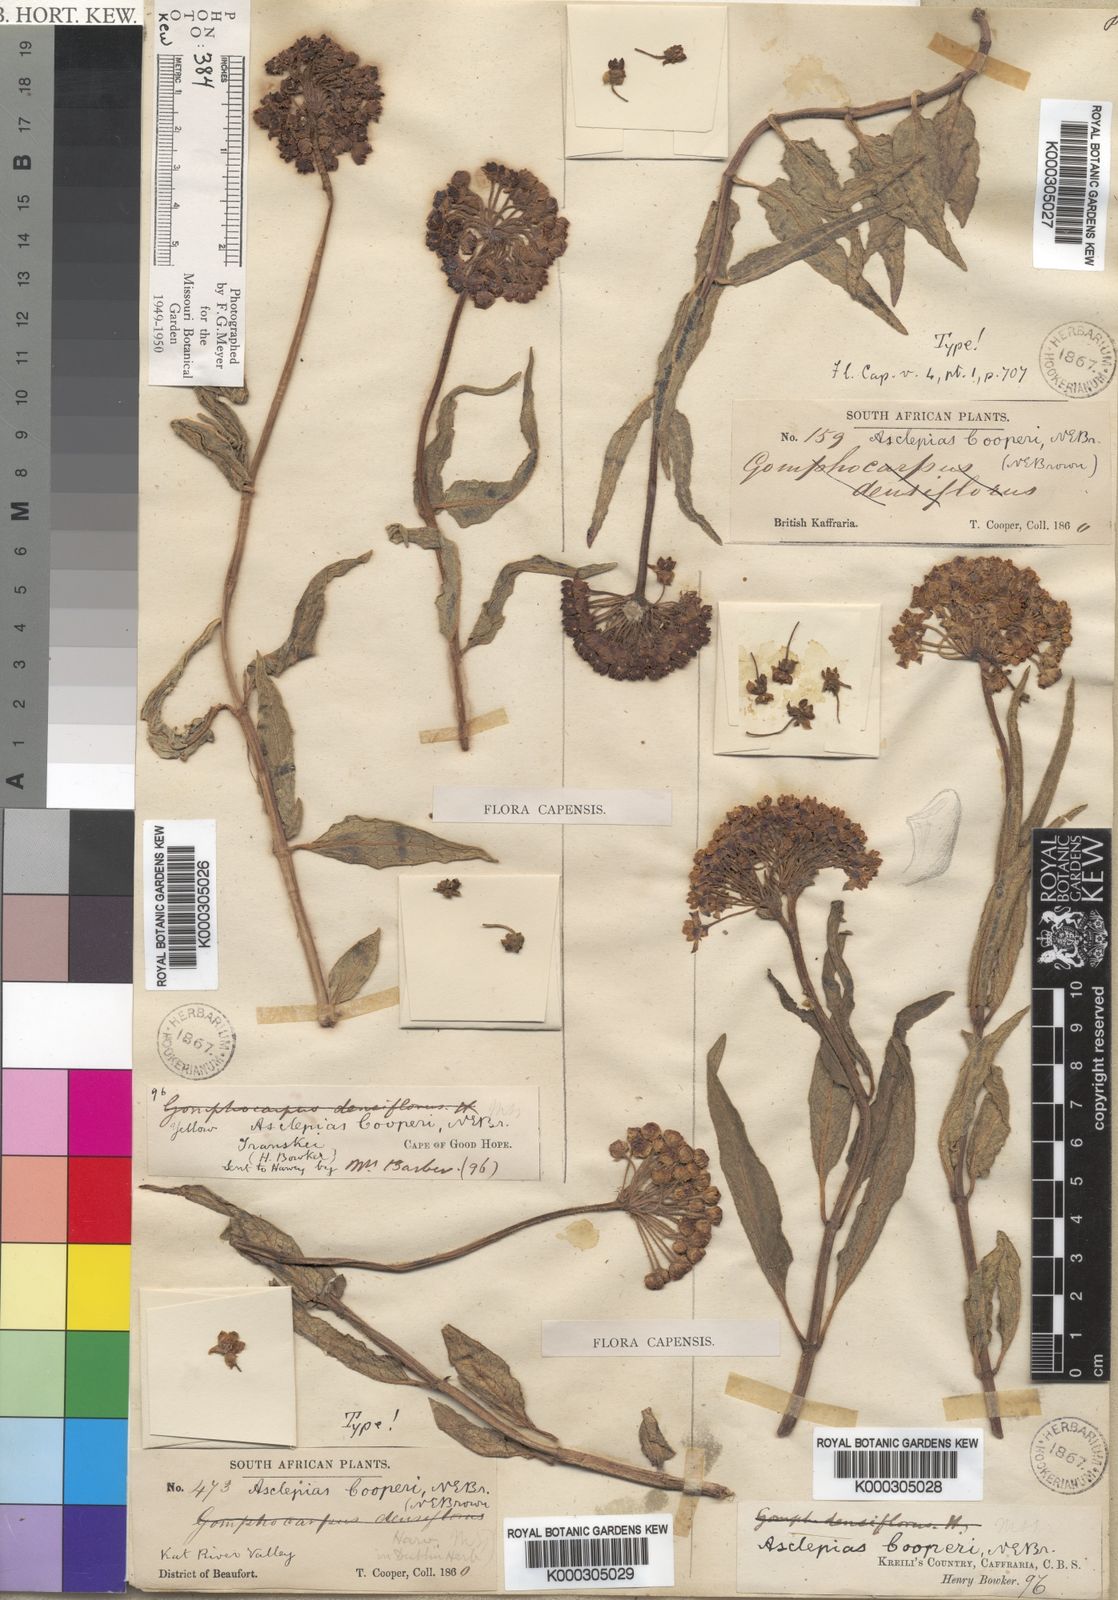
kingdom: Plantae
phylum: Tracheophyta
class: Magnoliopsida
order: Gentianales
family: Apocynaceae
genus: Asclepias
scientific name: Asclepias cooperi
